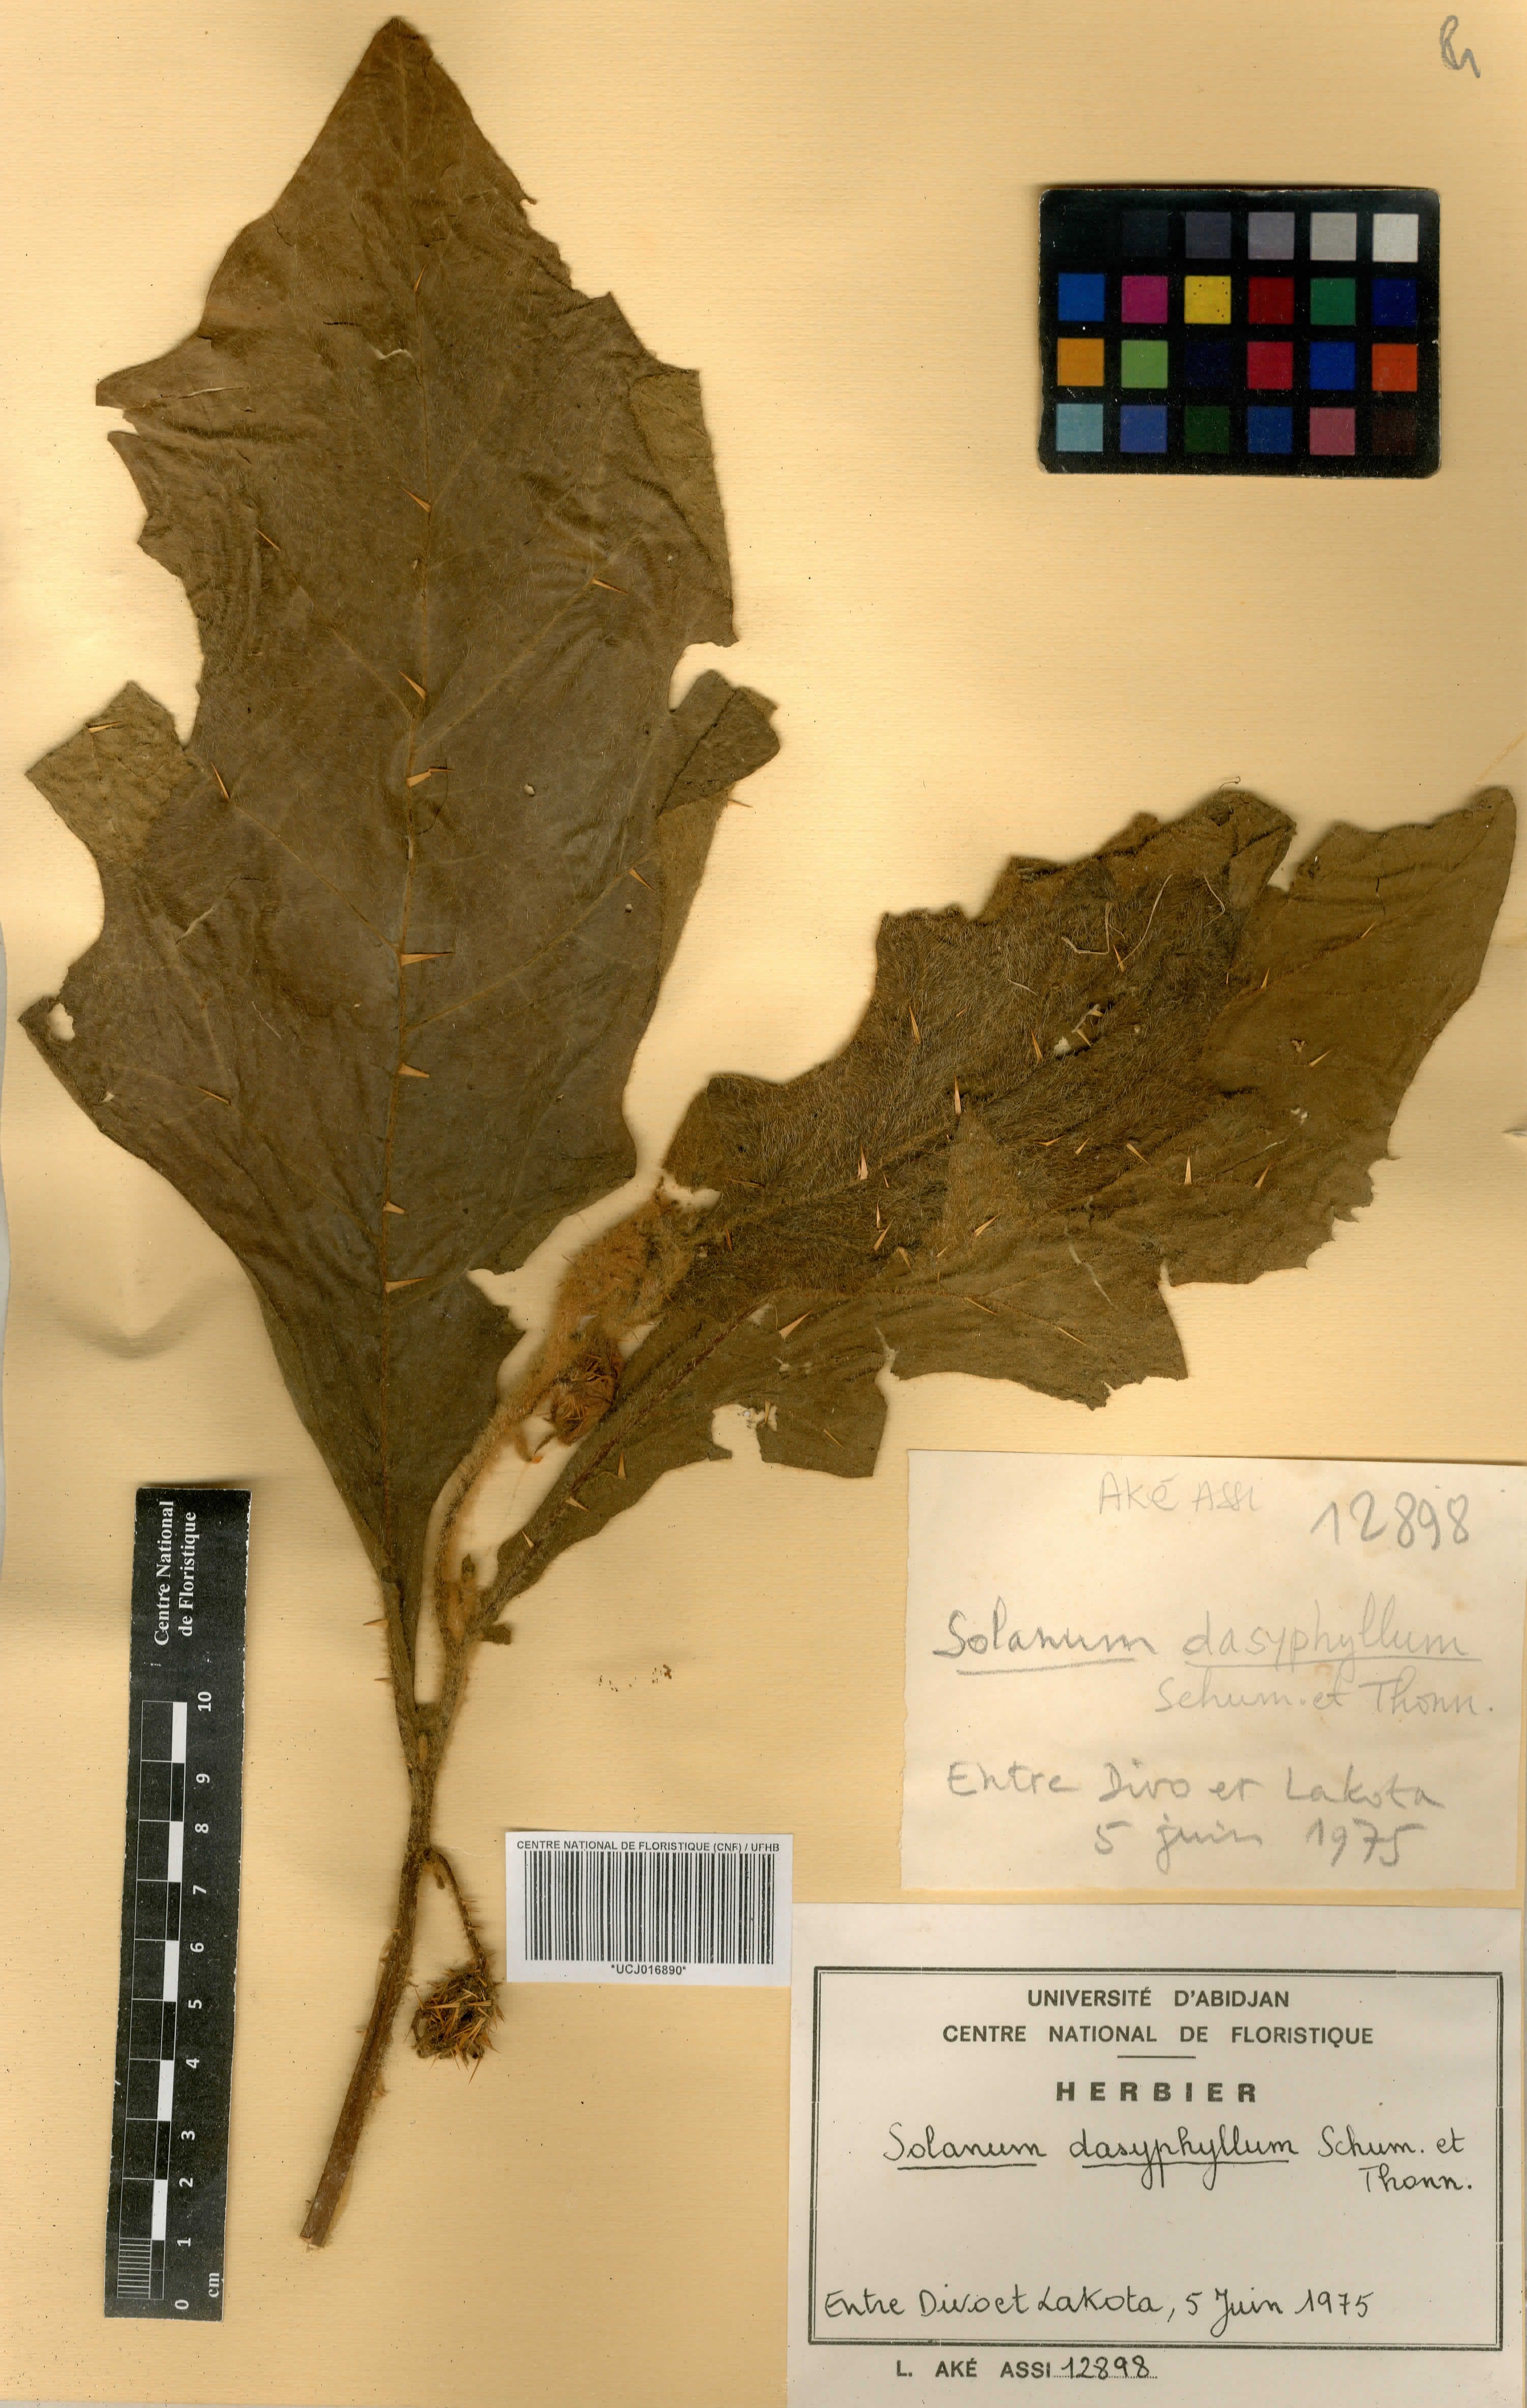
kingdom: Plantae
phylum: Tracheophyta
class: Magnoliopsida
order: Solanales
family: Solanaceae
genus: Solanum
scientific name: Solanum dasyphyllum
